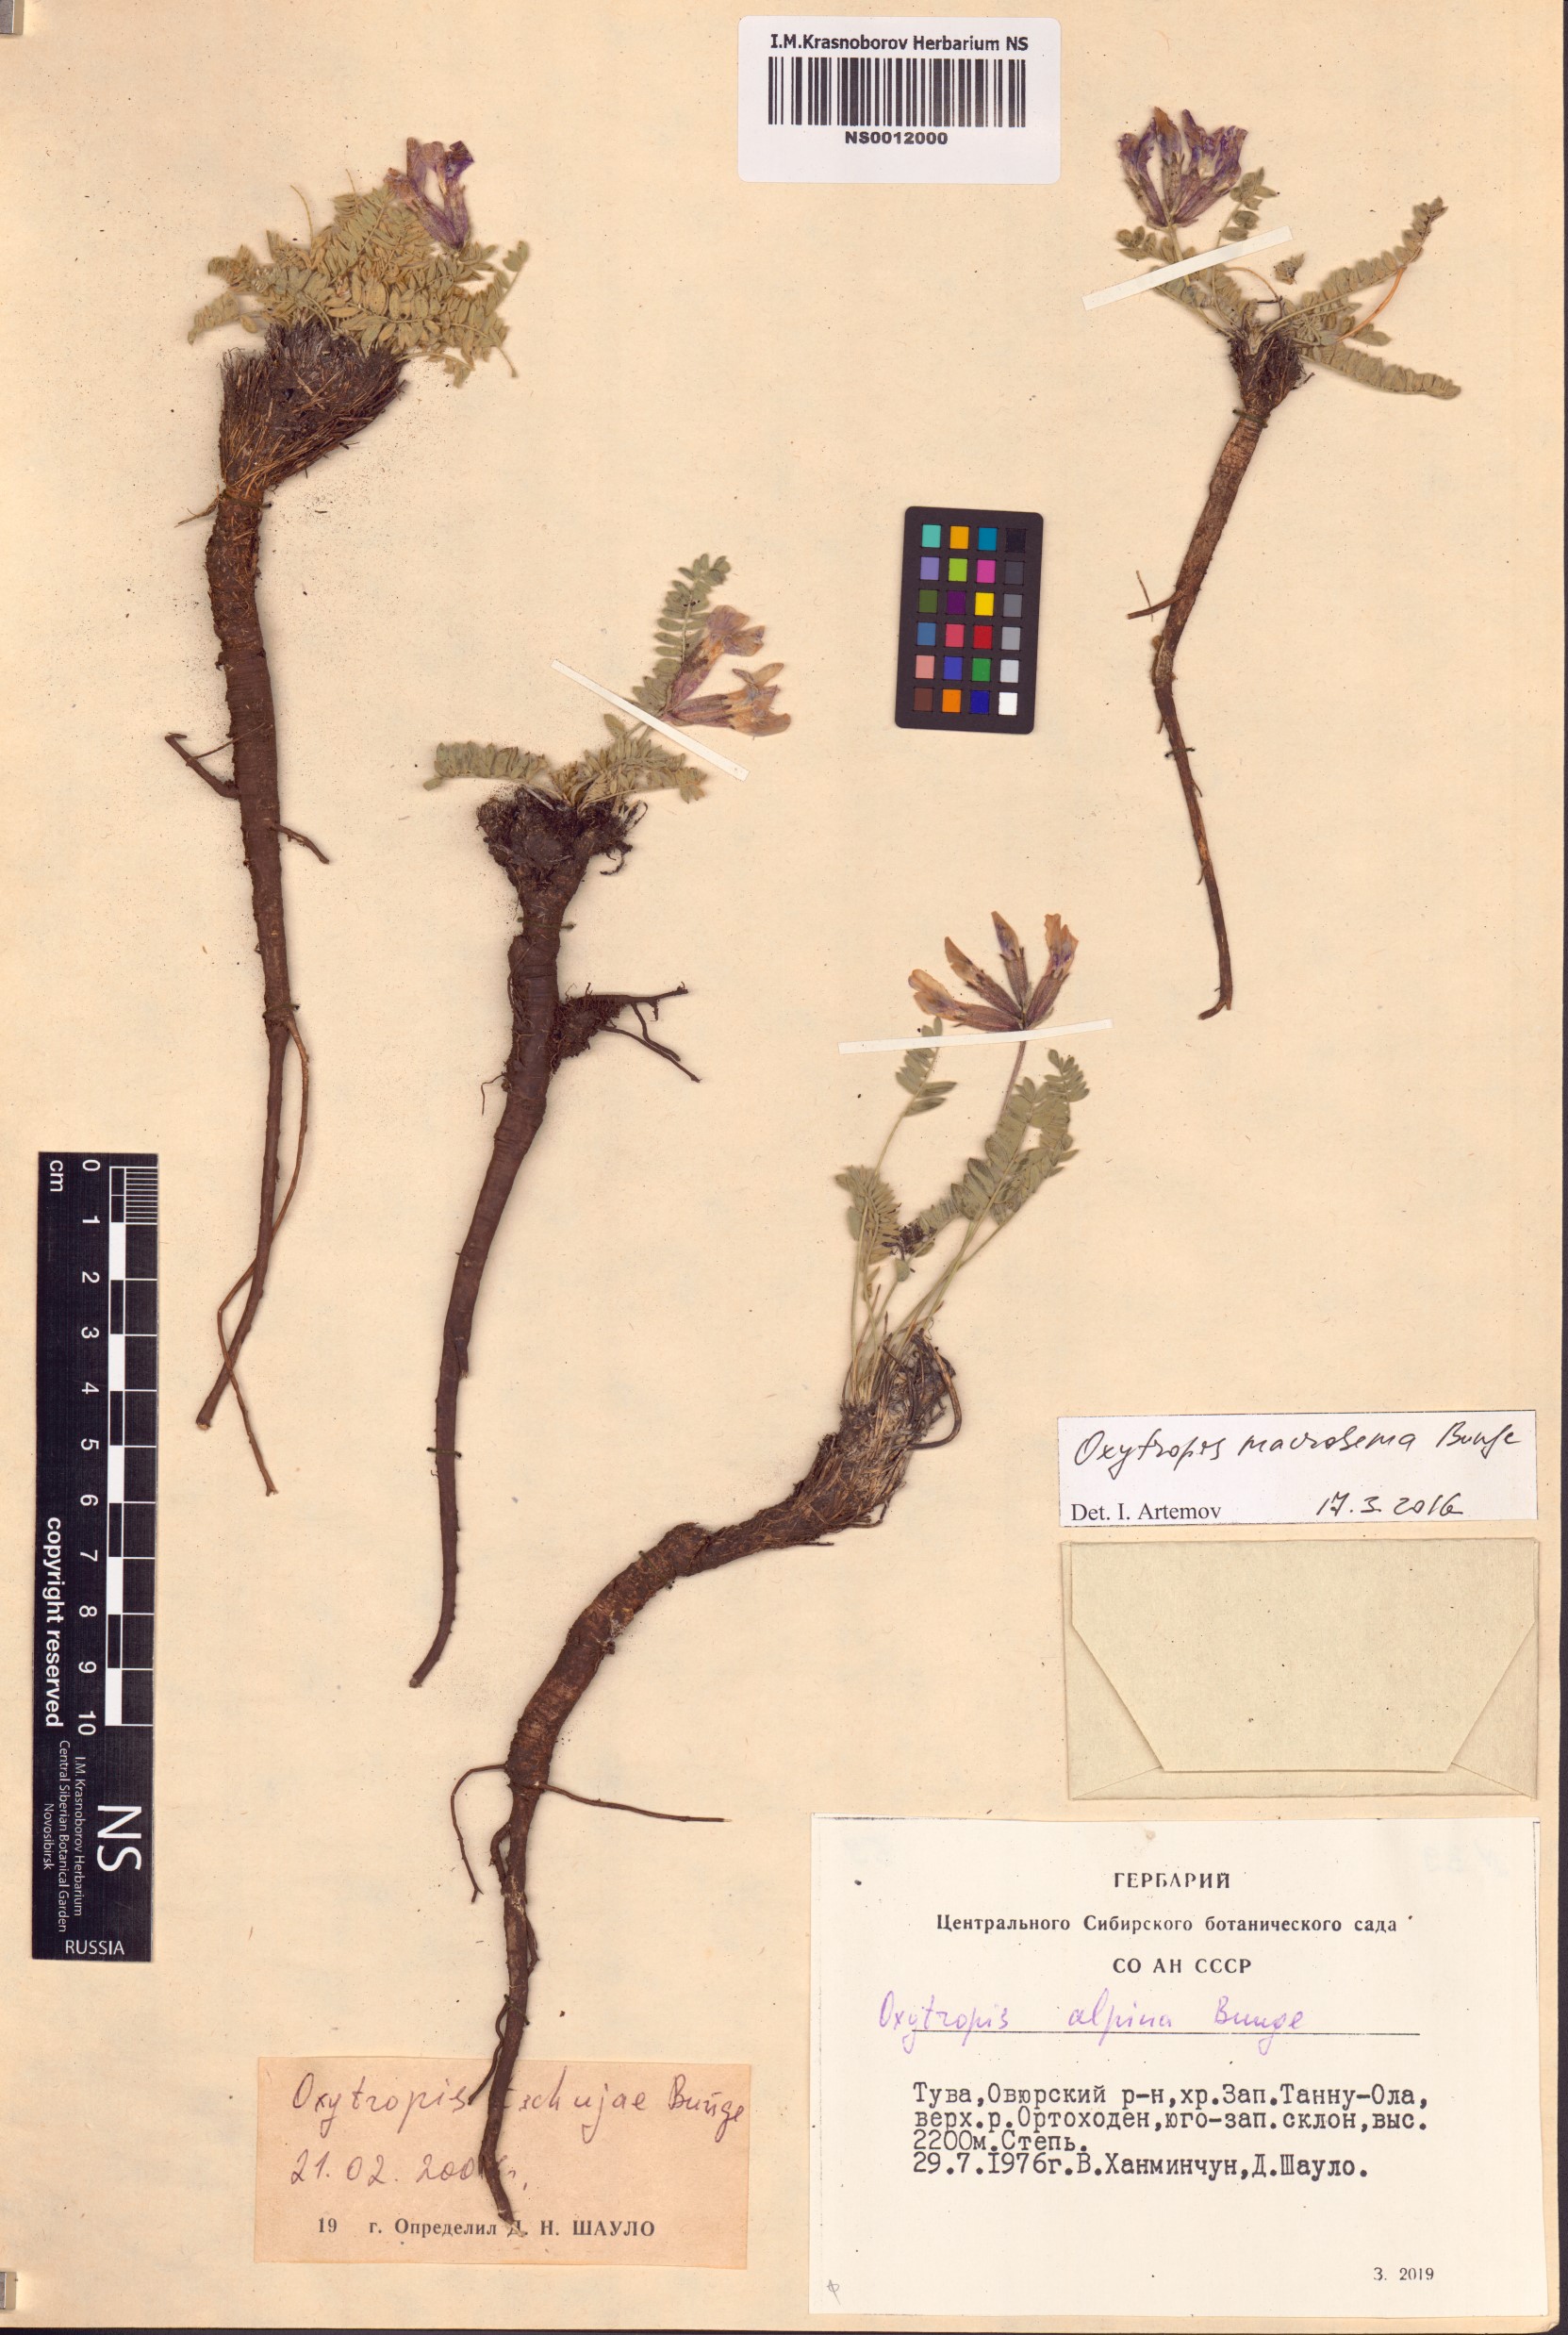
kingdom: Plantae
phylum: Tracheophyta
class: Magnoliopsida
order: Fabales
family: Fabaceae
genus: Oxytropis
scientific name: Oxytropis macrosema
